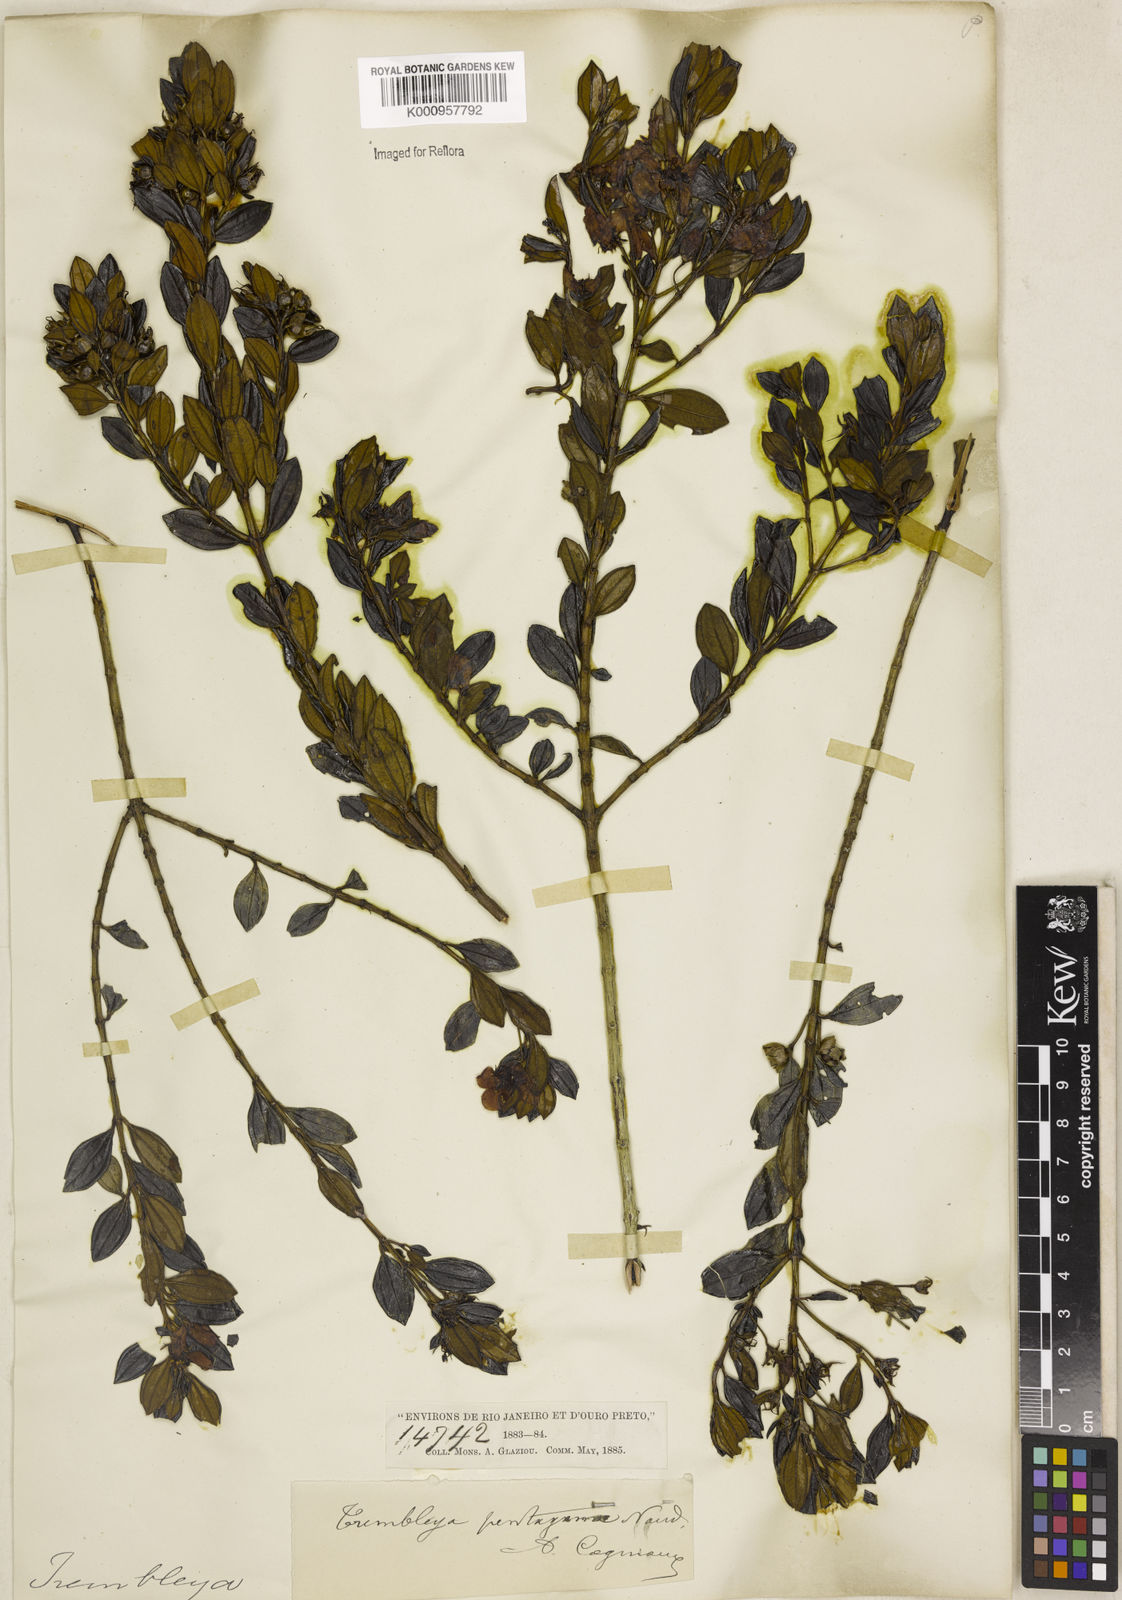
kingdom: Plantae
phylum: Tracheophyta
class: Magnoliopsida
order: Myrtales
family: Melastomataceae
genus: Microlicia
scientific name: Microlicia pentagona
